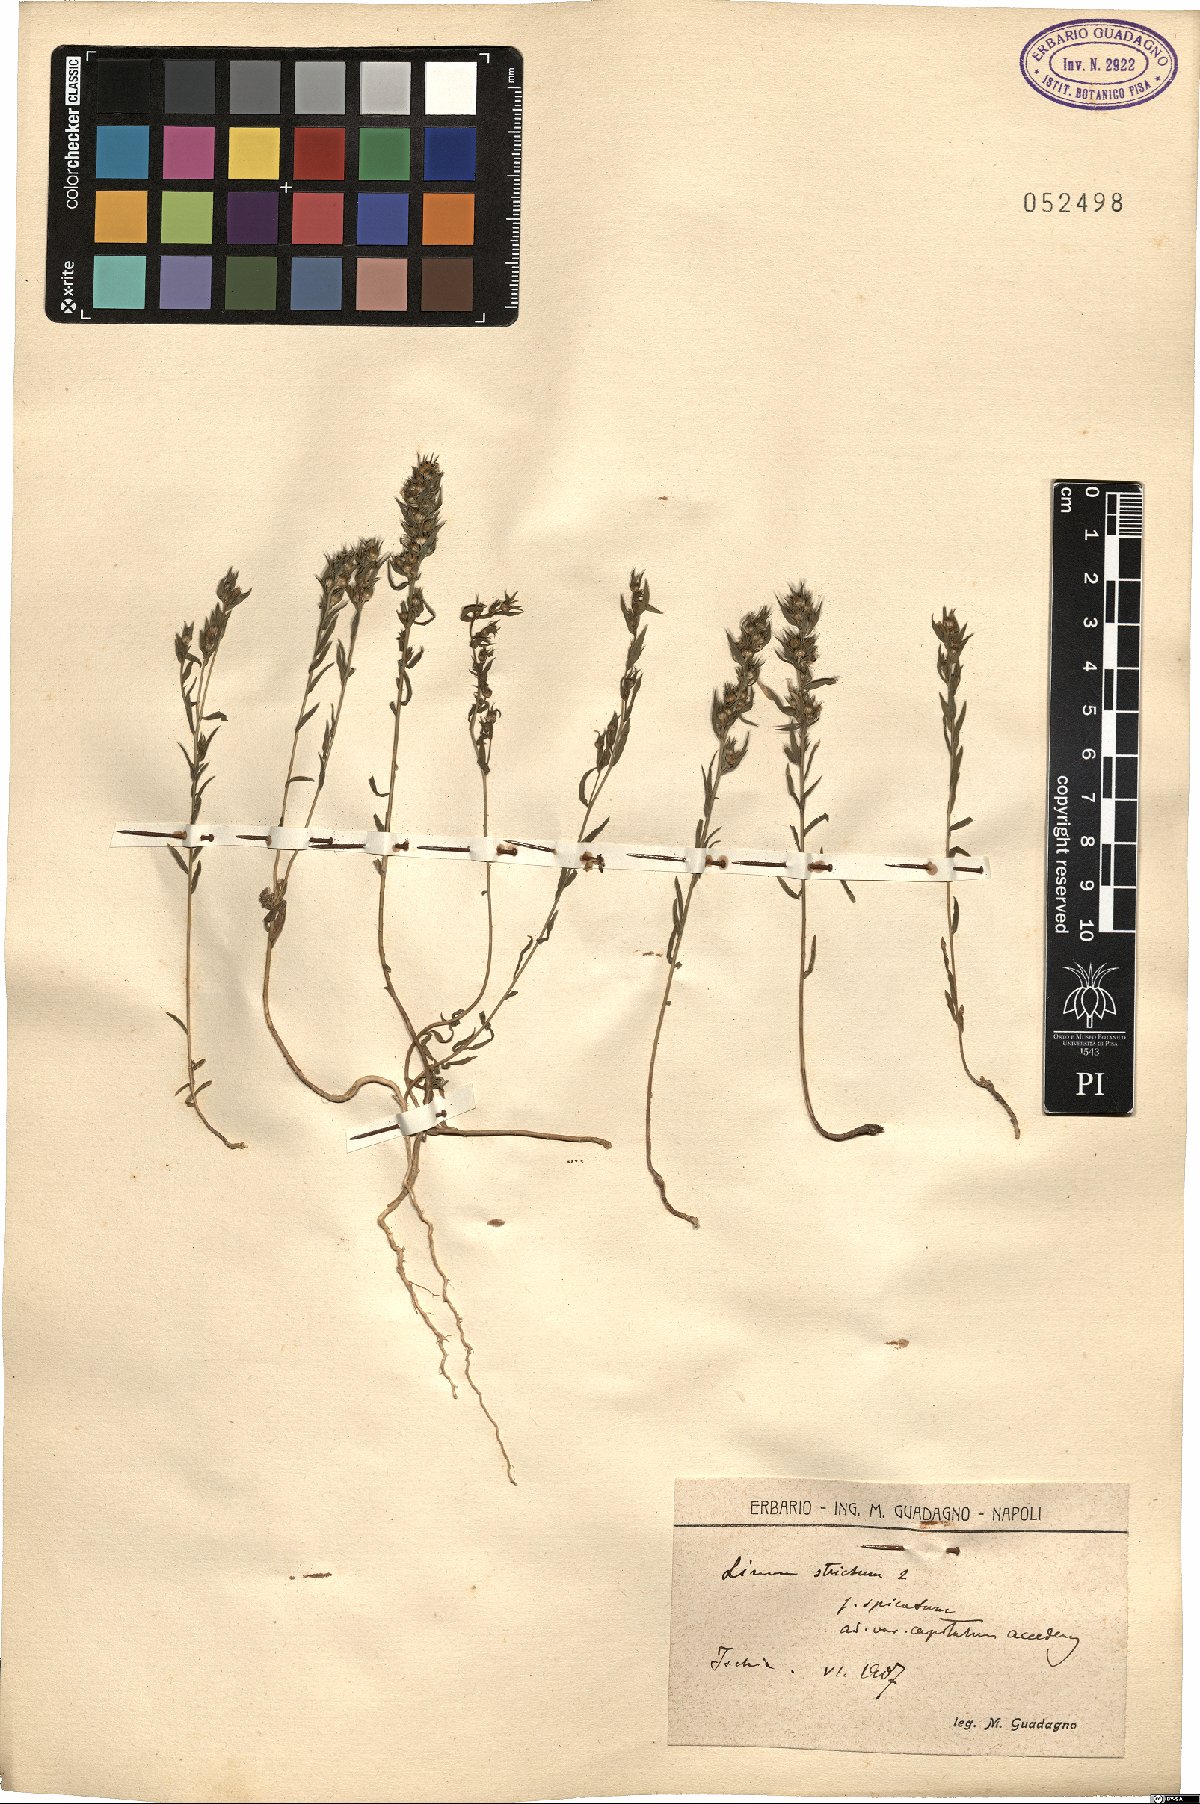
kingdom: Plantae
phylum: Tracheophyta
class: Magnoliopsida
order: Malpighiales
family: Linaceae
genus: Linum
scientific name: Linum strictum
